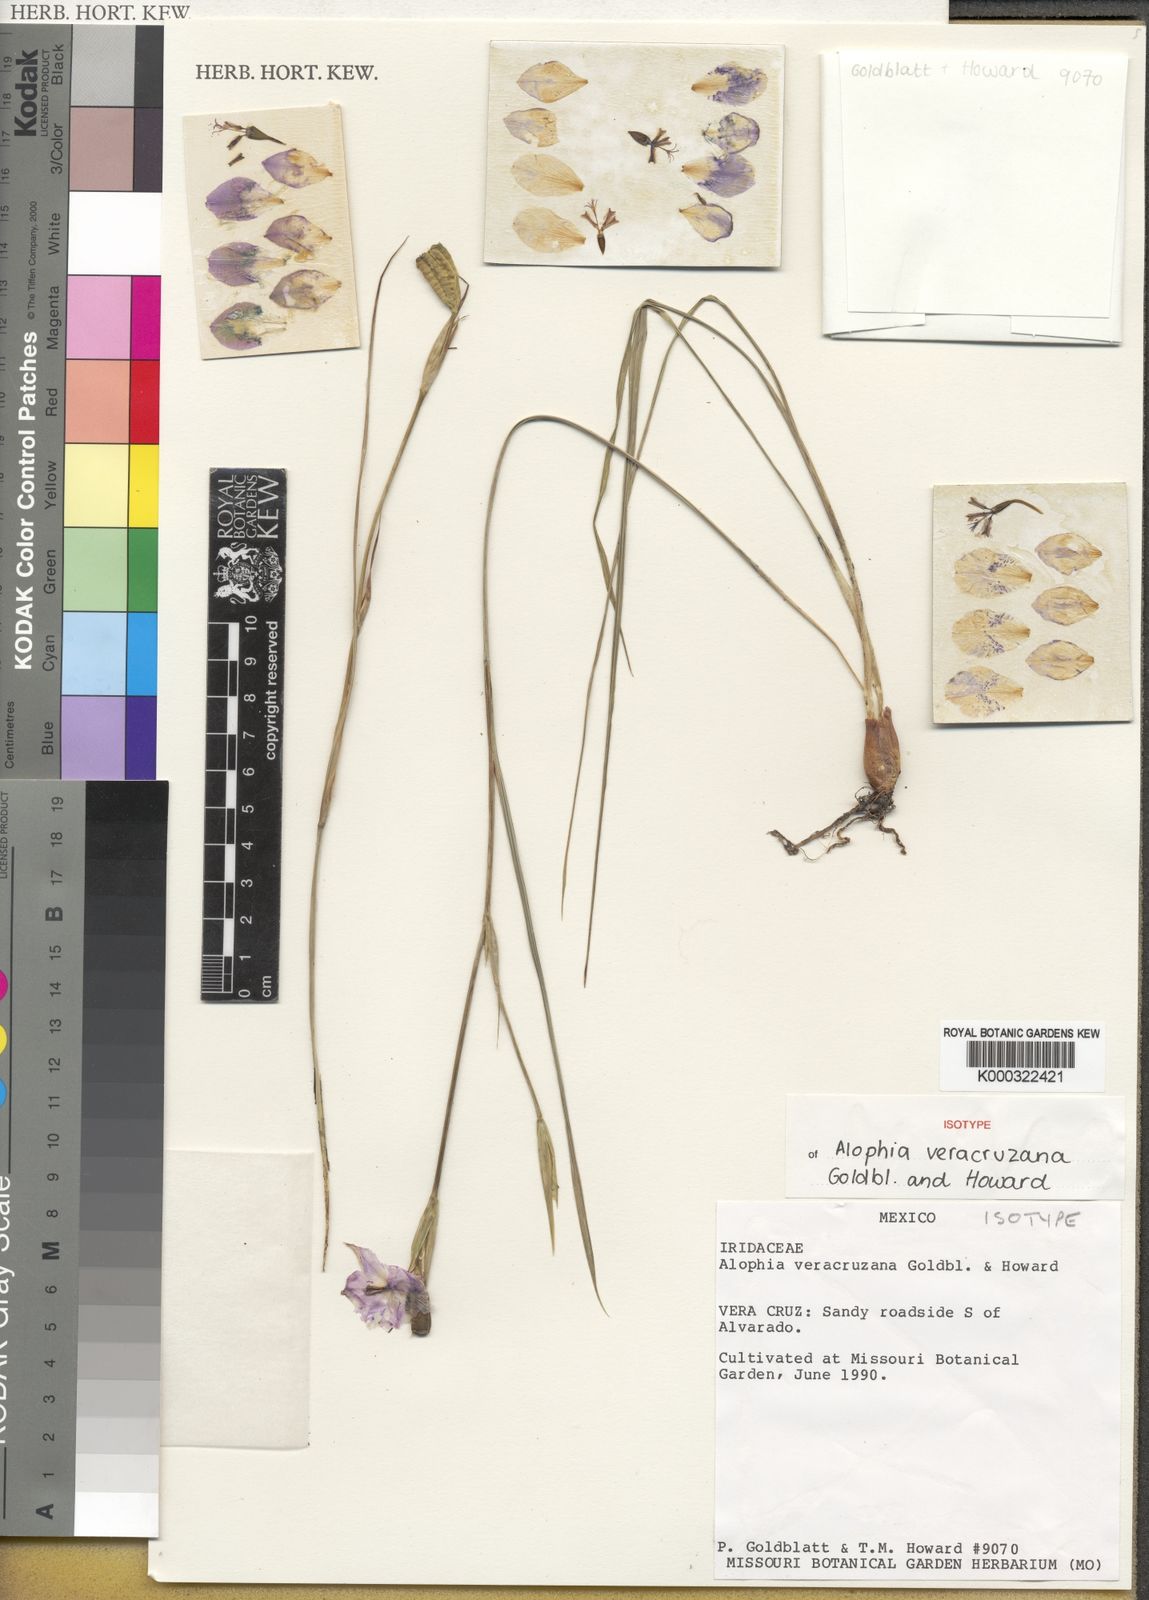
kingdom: Plantae
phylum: Tracheophyta
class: Liliopsida
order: Asparagales
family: Iridaceae
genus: Alophia
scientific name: Alophia veracruzana
